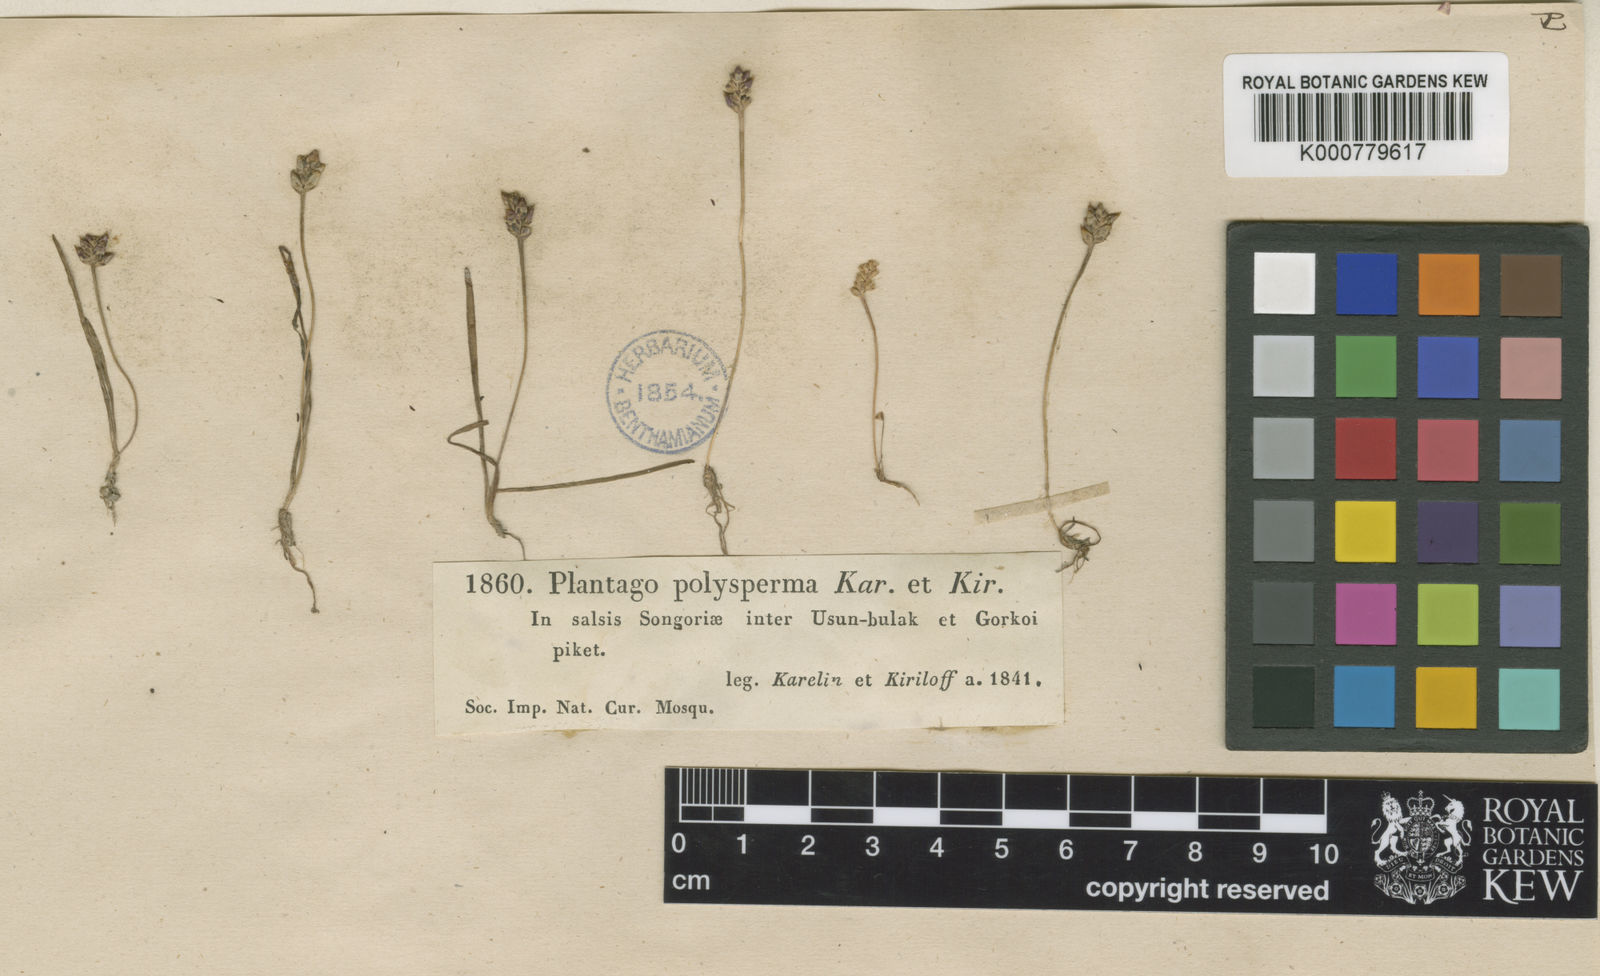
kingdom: Plantae
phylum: Tracheophyta
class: Magnoliopsida
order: Lamiales
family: Plantaginaceae
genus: Plantago
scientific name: Plantago polysperma
